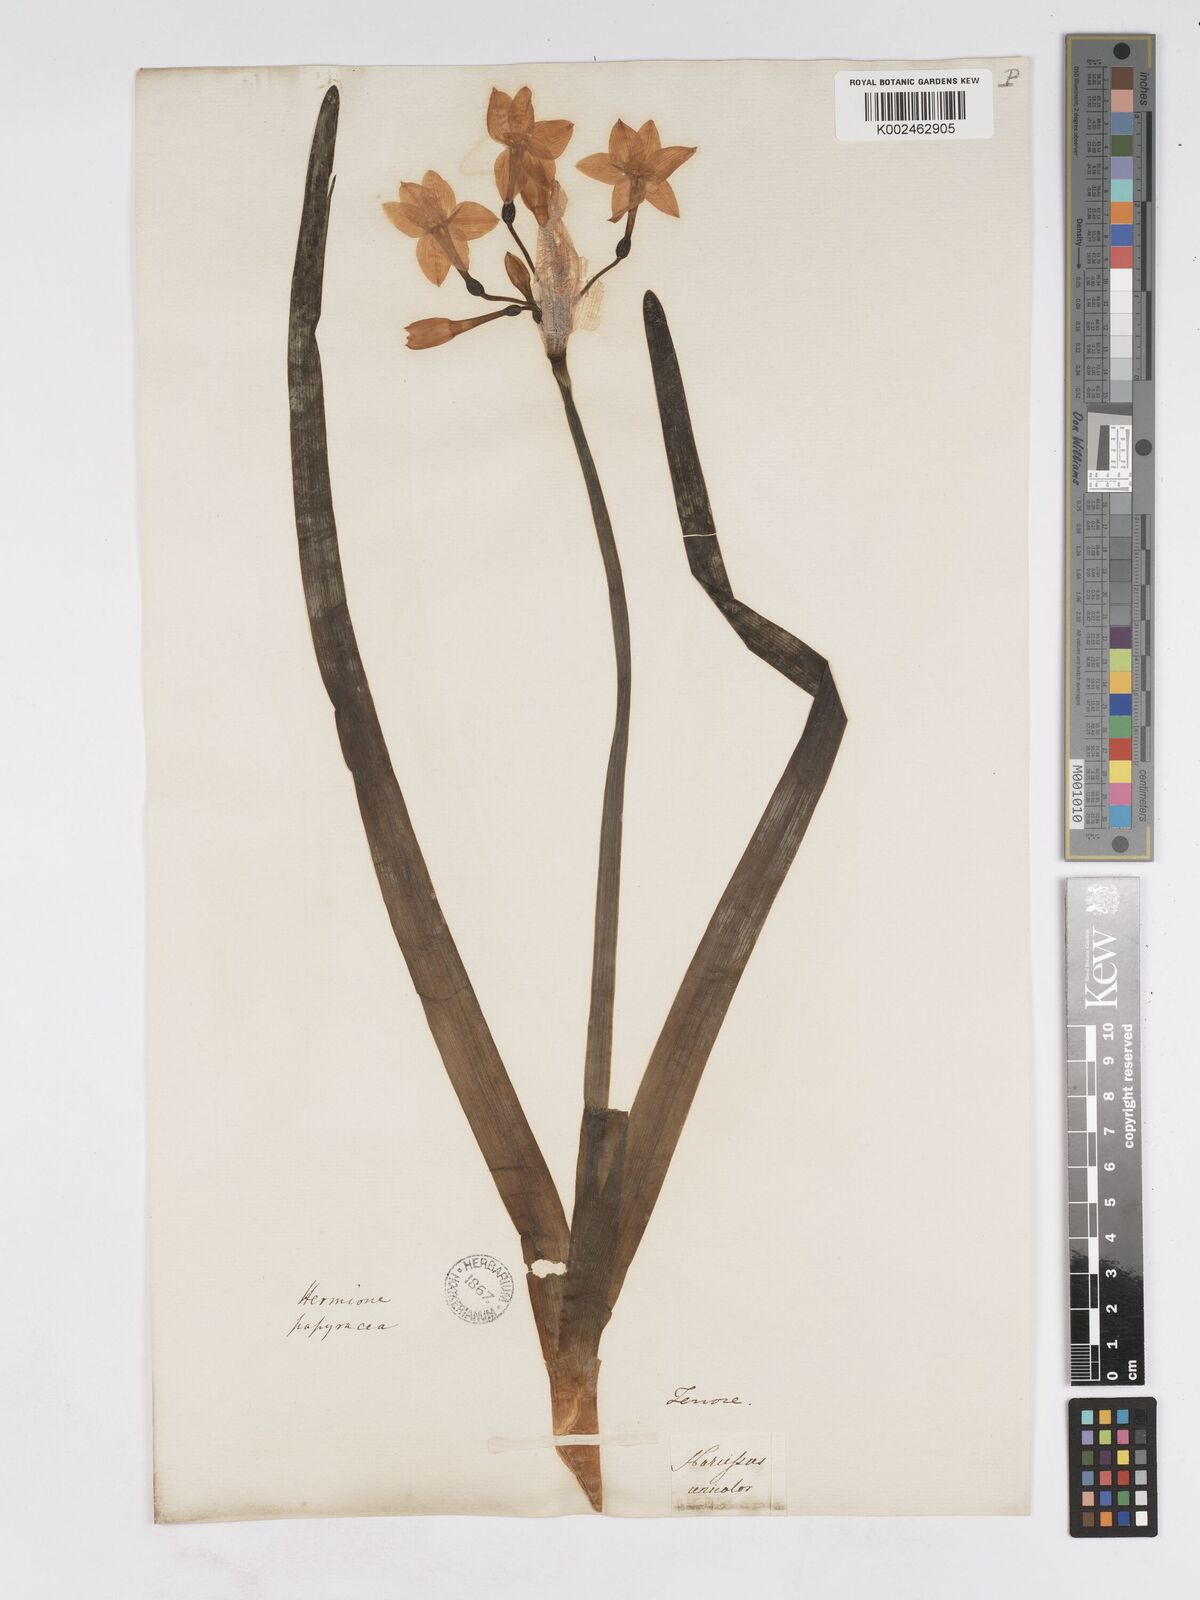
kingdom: Plantae
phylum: Tracheophyta
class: Liliopsida
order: Asparagales
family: Amaryllidaceae
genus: Narcissus
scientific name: Narcissus papyraceus
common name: Paper-white daffodil
